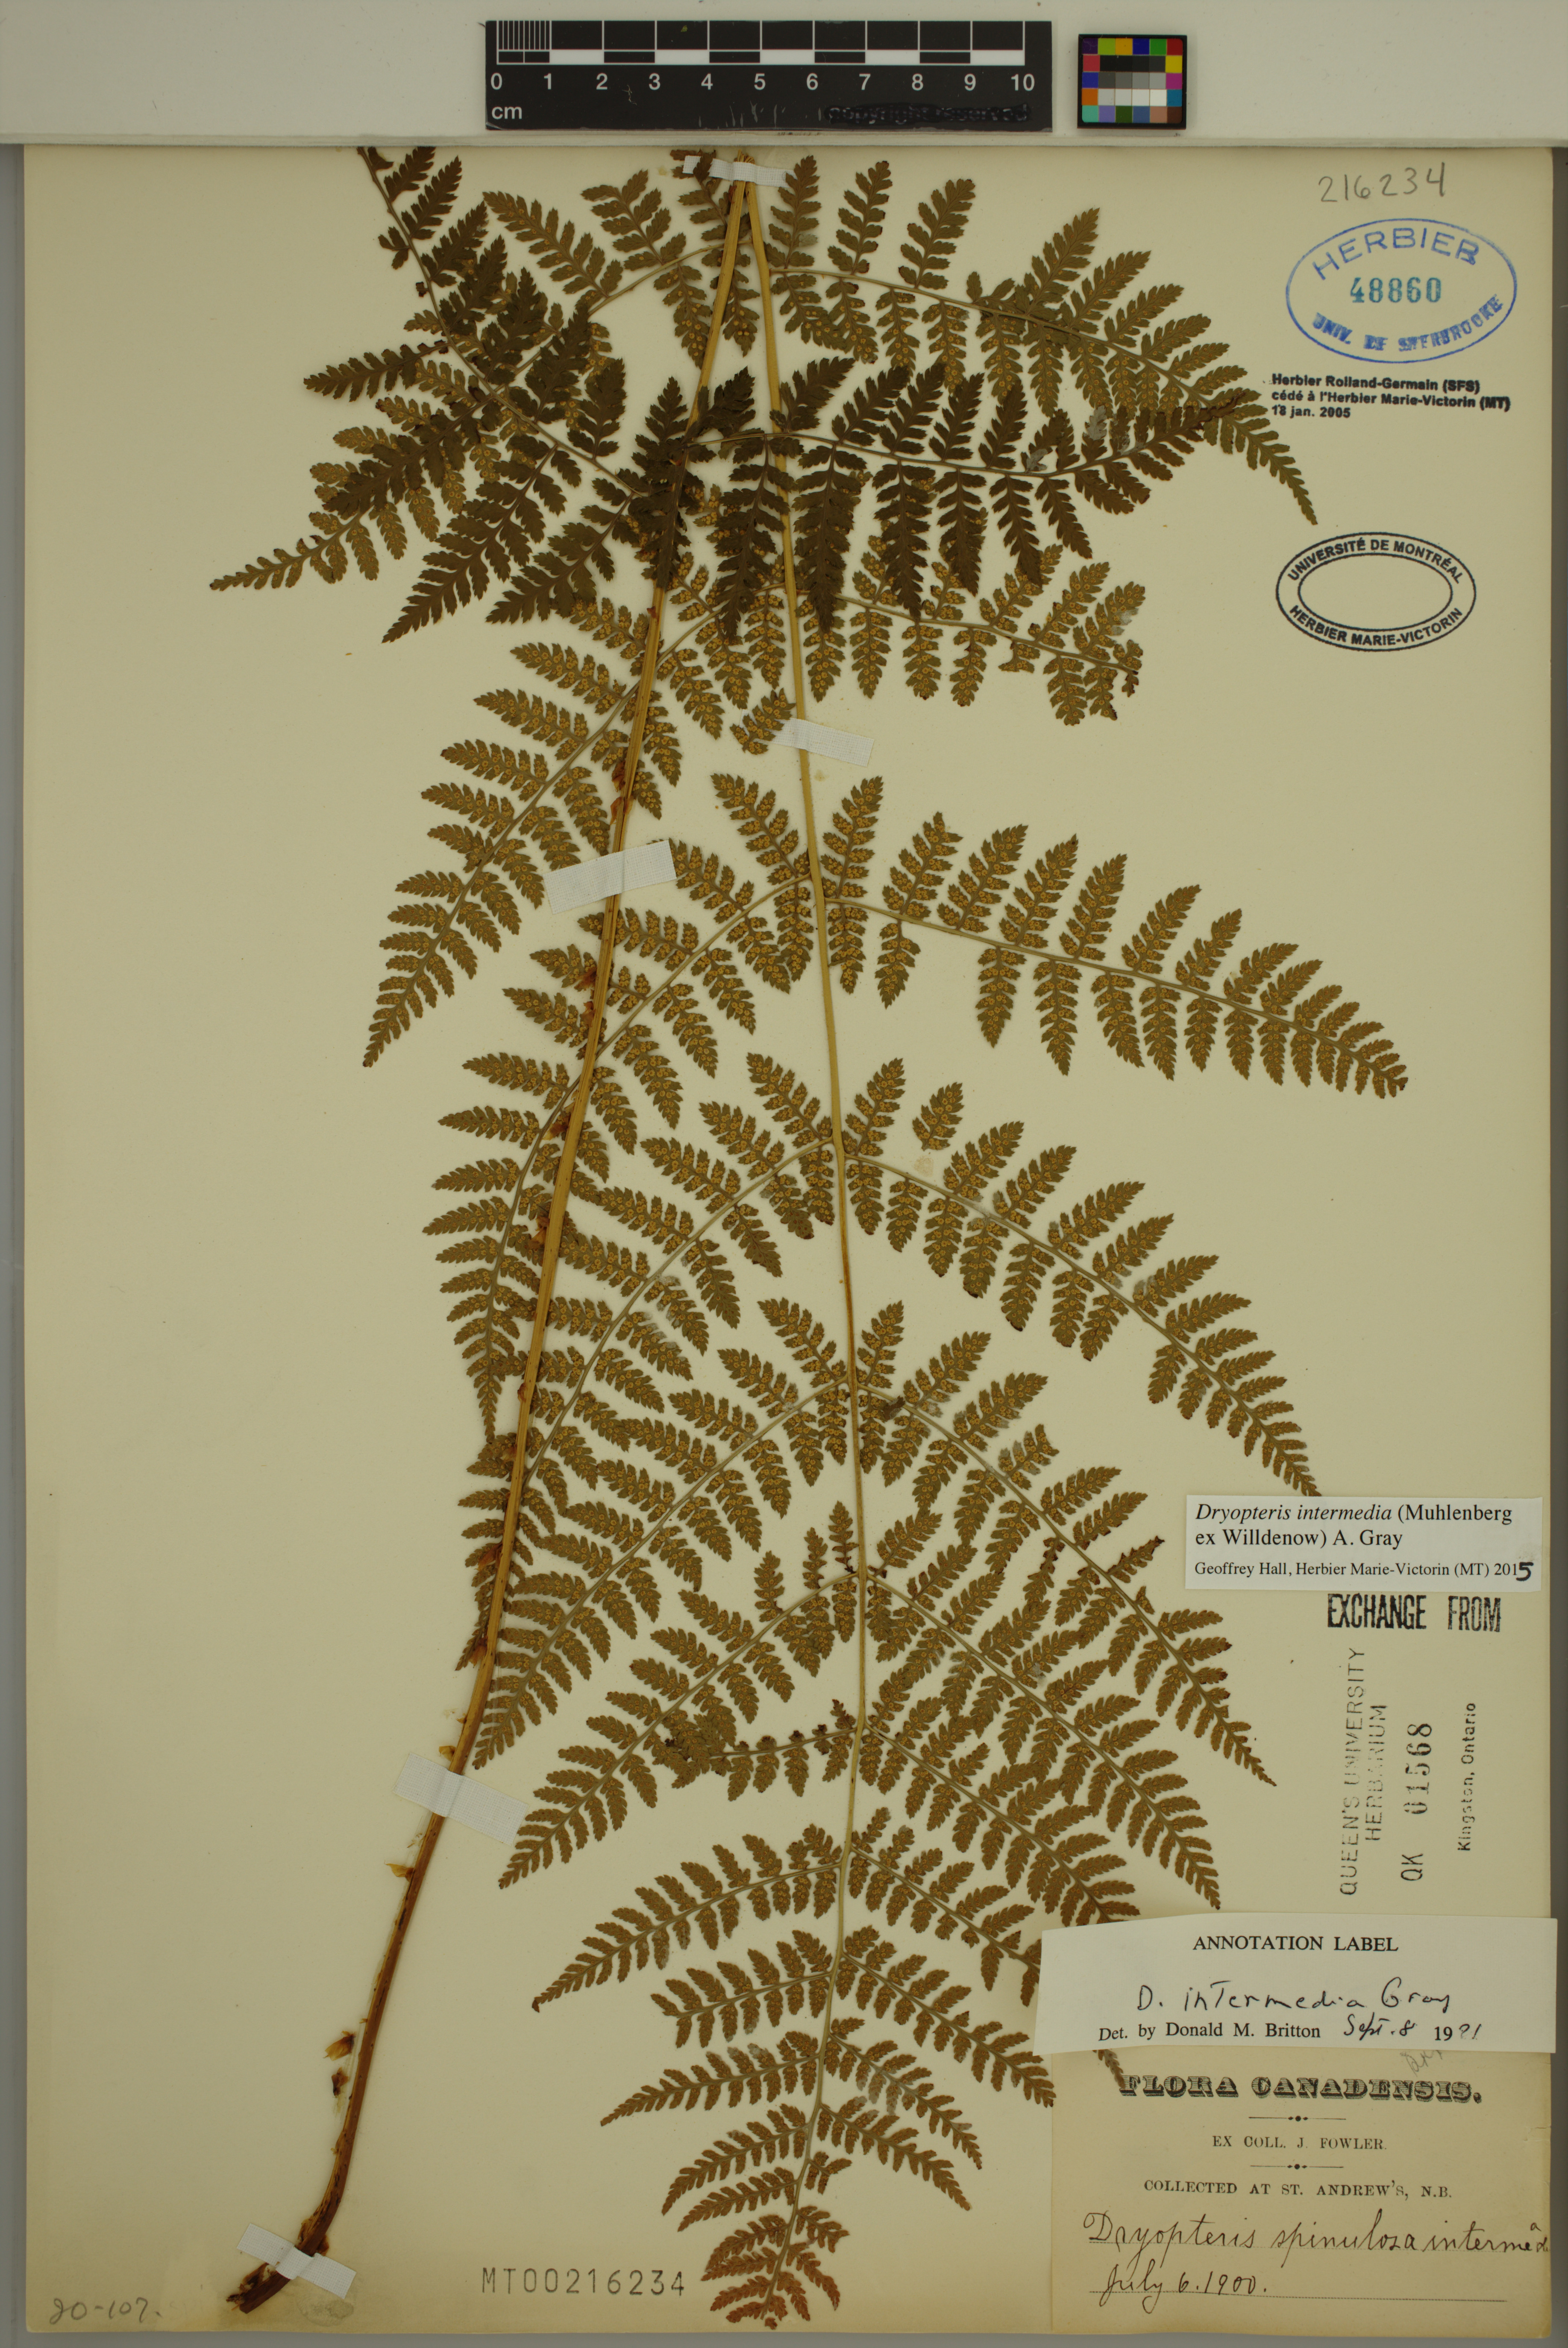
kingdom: Plantae
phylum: Tracheophyta
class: Polypodiopsida
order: Polypodiales
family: Dryopteridaceae
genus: Dryopteris
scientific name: Dryopteris intermedia
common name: Evergreen wood fern
